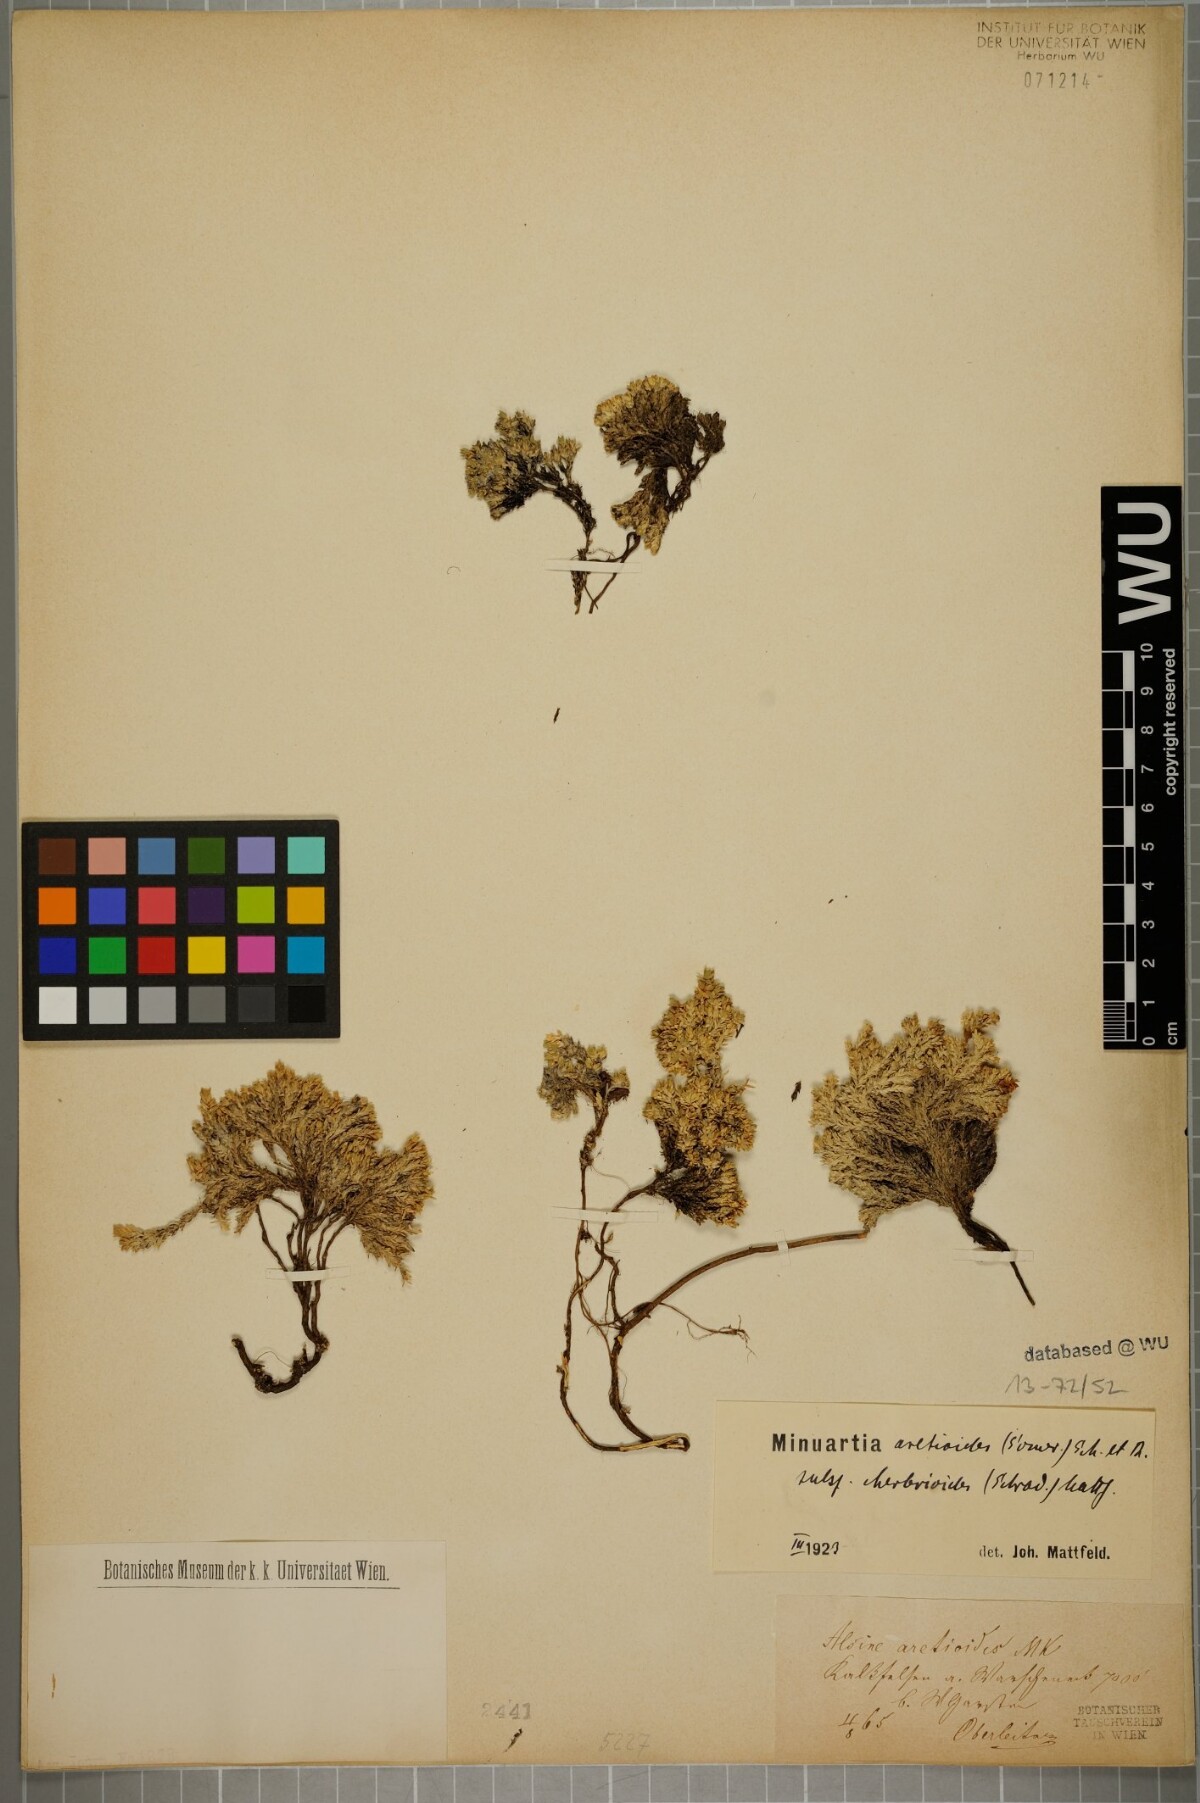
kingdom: Plantae
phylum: Tracheophyta
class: Magnoliopsida
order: Caryophyllales
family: Caryophyllaceae
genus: Facchinia
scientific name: Facchinia cherlerioides
